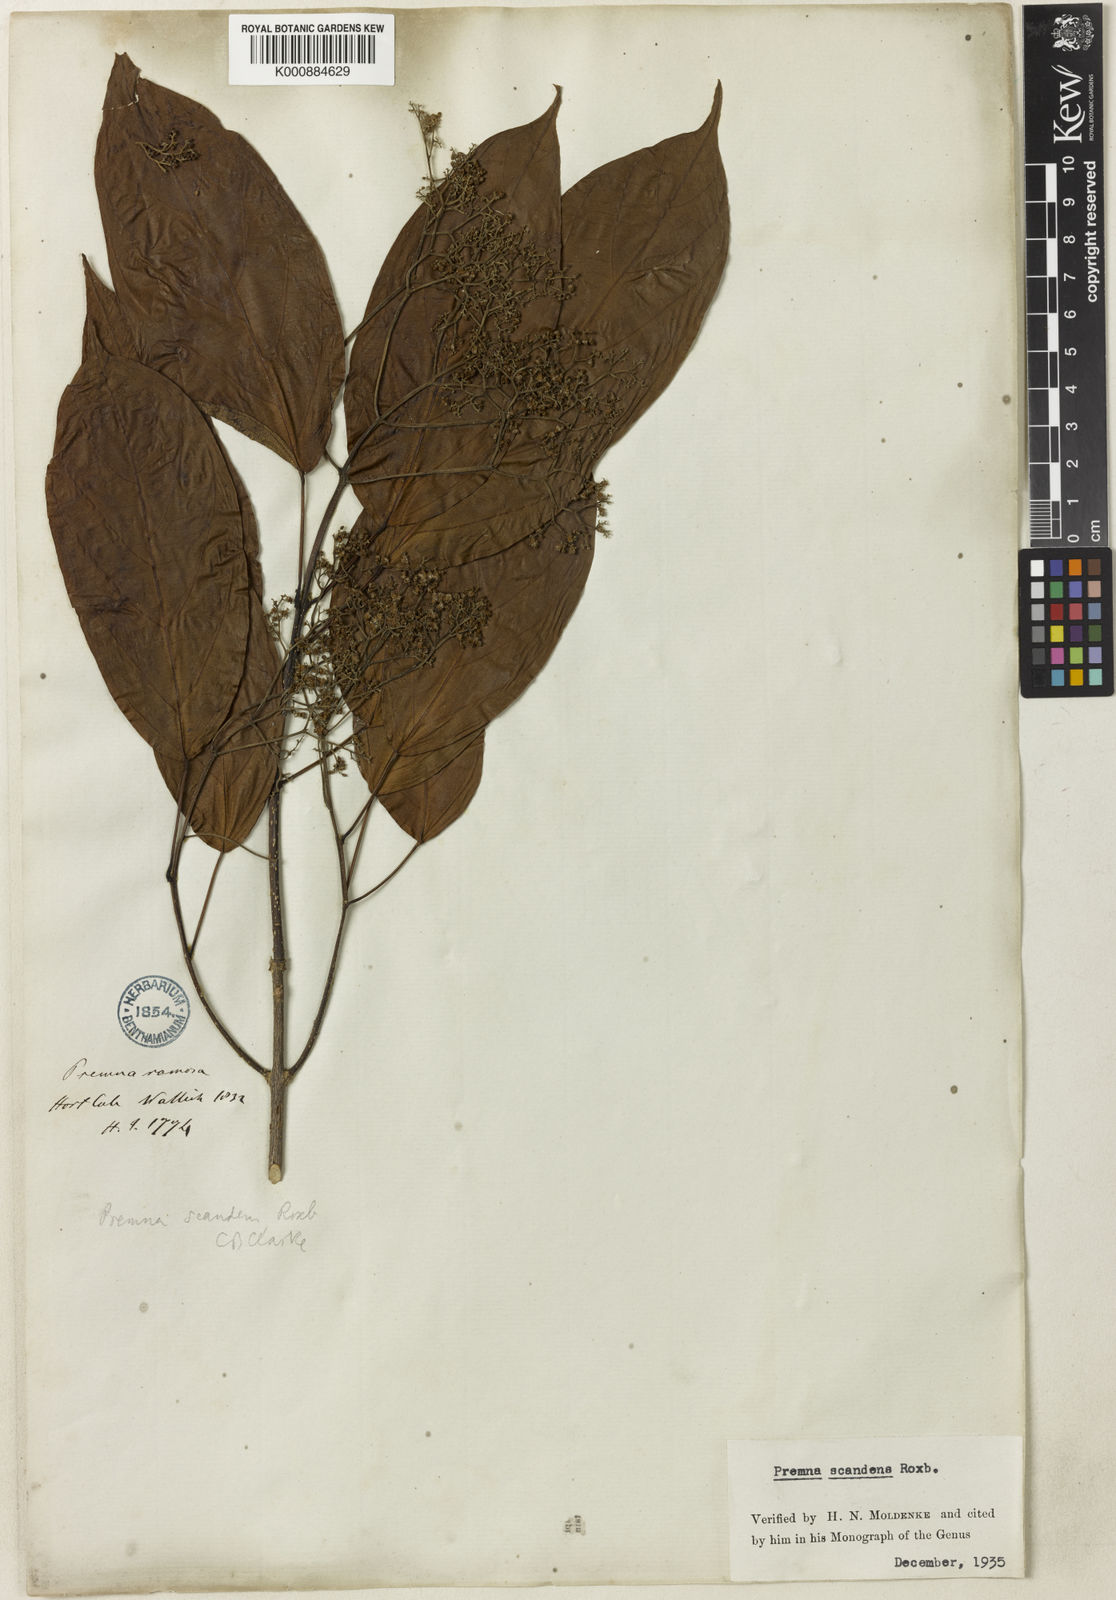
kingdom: Plantae
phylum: Tracheophyta
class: Magnoliopsida
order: Lamiales
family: Lamiaceae
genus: Premna
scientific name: Premna scandens
